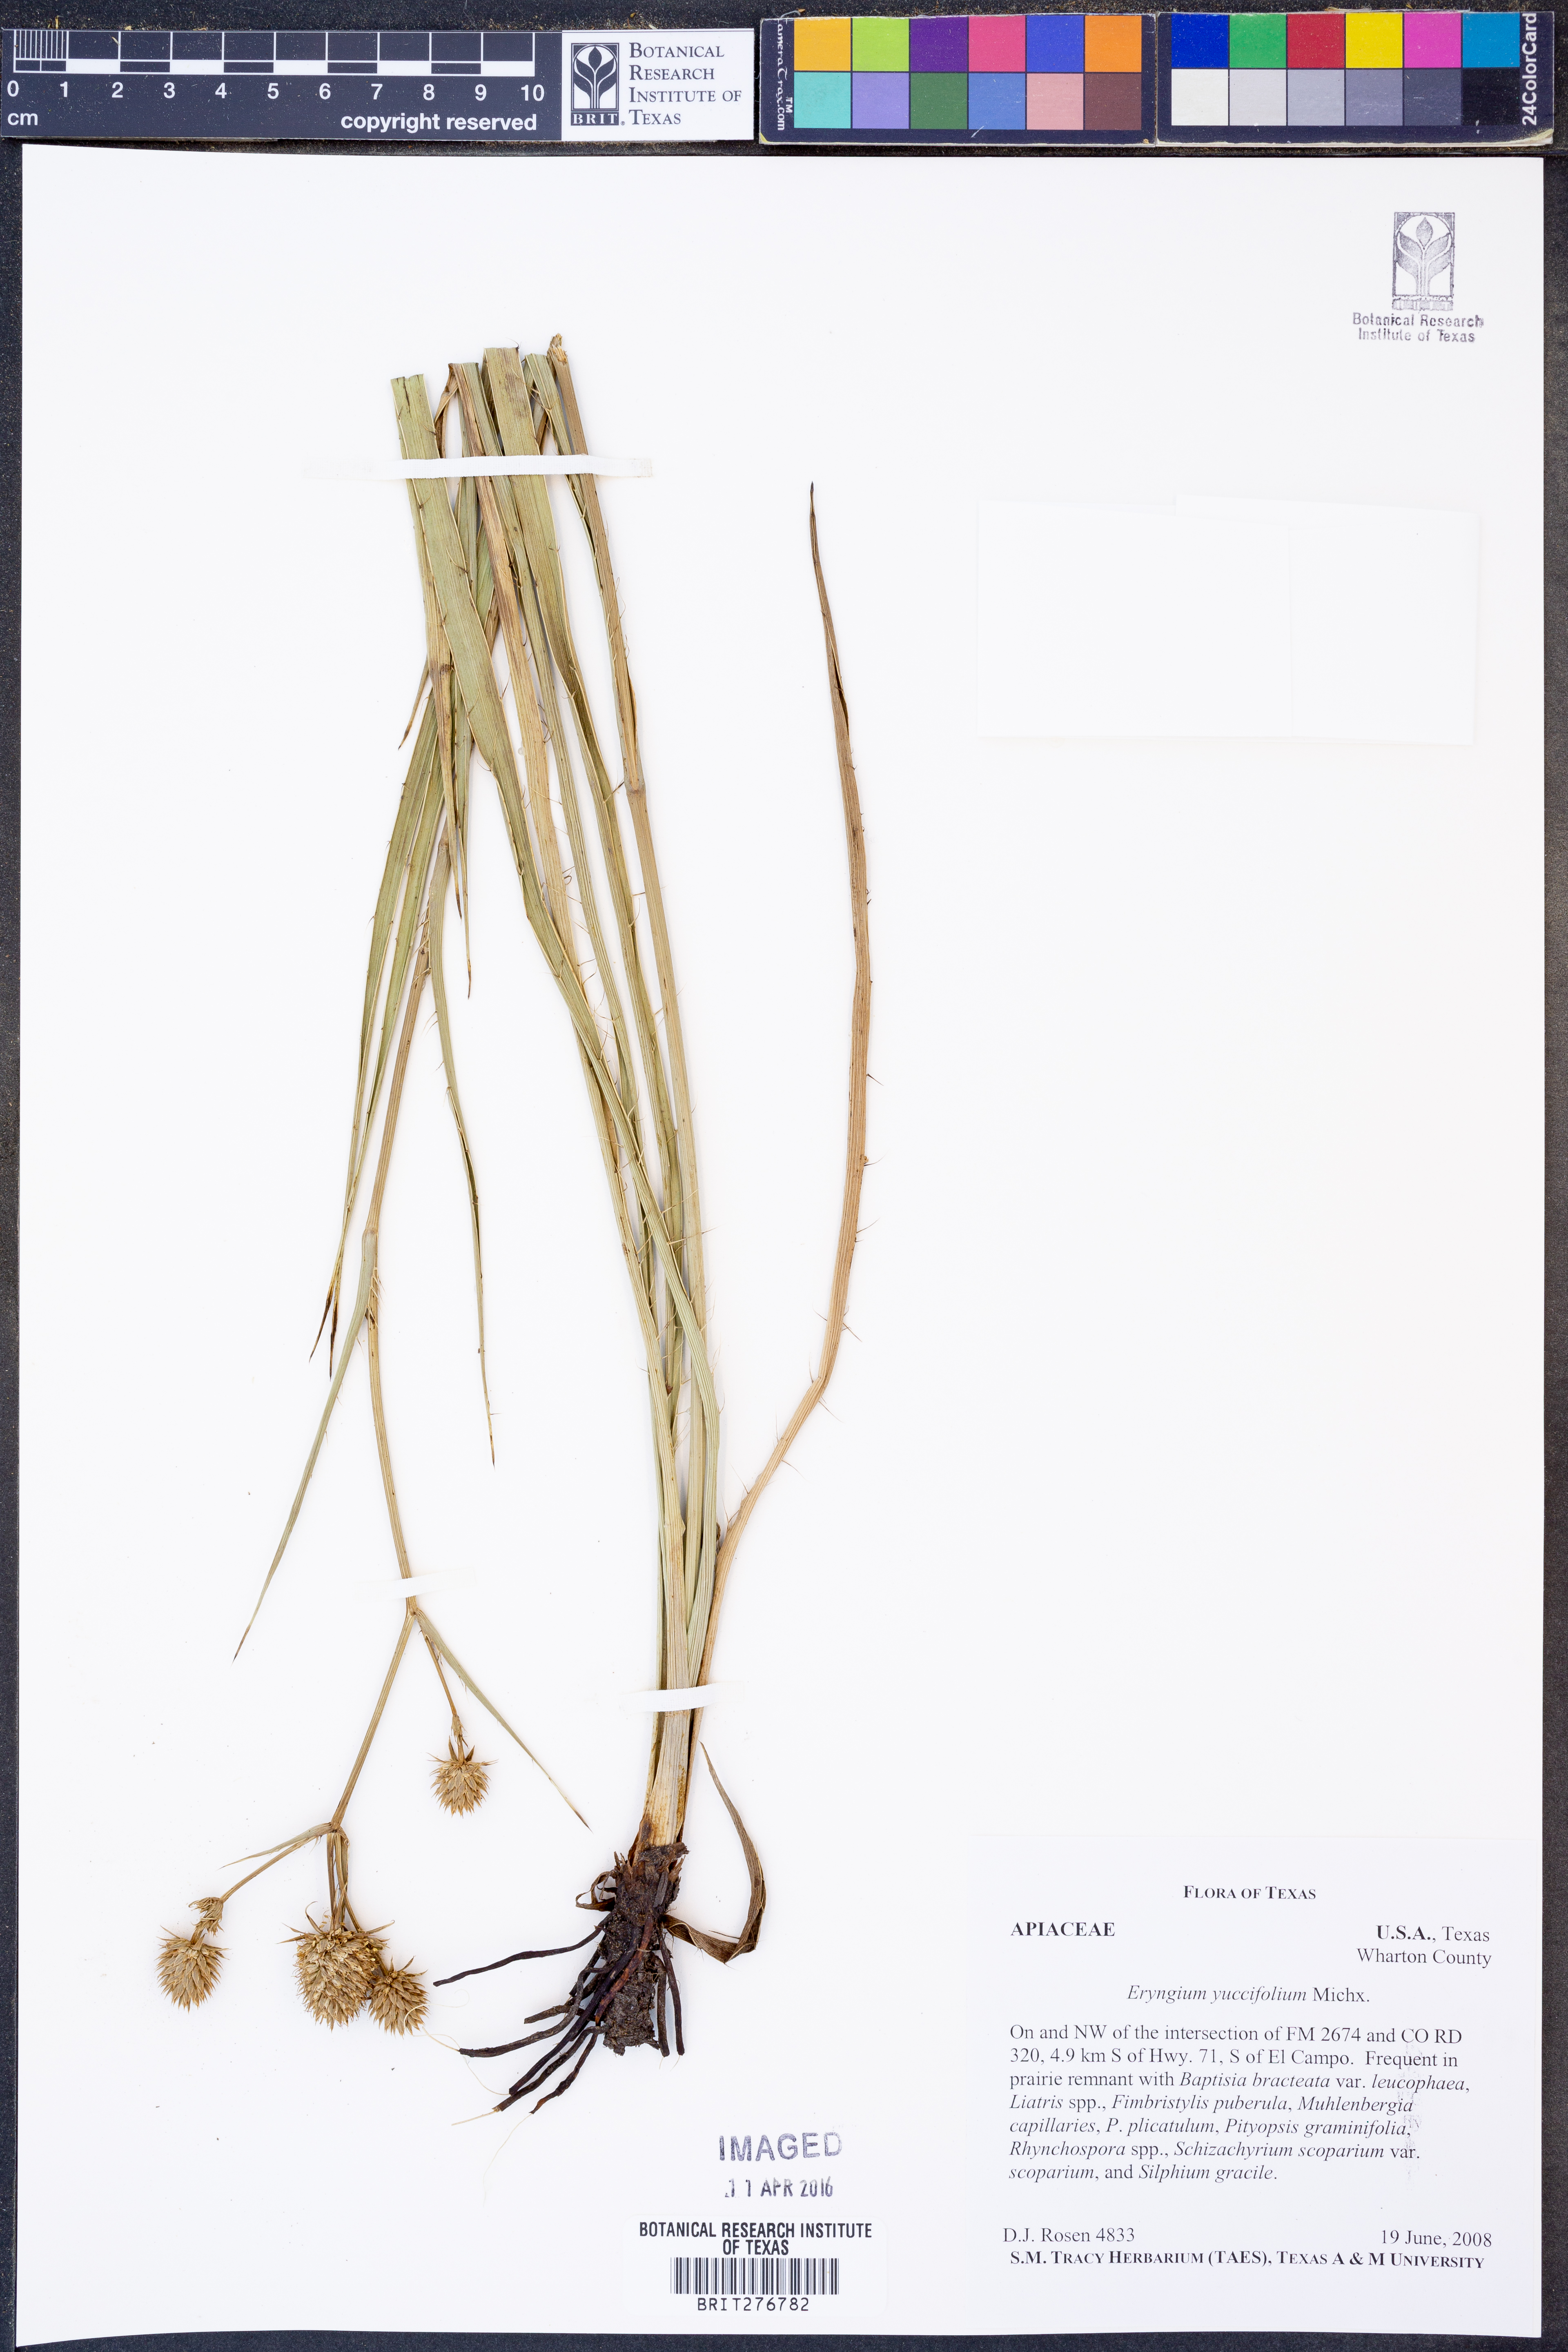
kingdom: Plantae
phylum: Tracheophyta
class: Magnoliopsida
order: Apiales
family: Apiaceae
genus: Eryngium
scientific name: Eryngium yuccifolium
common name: Button eryngo
